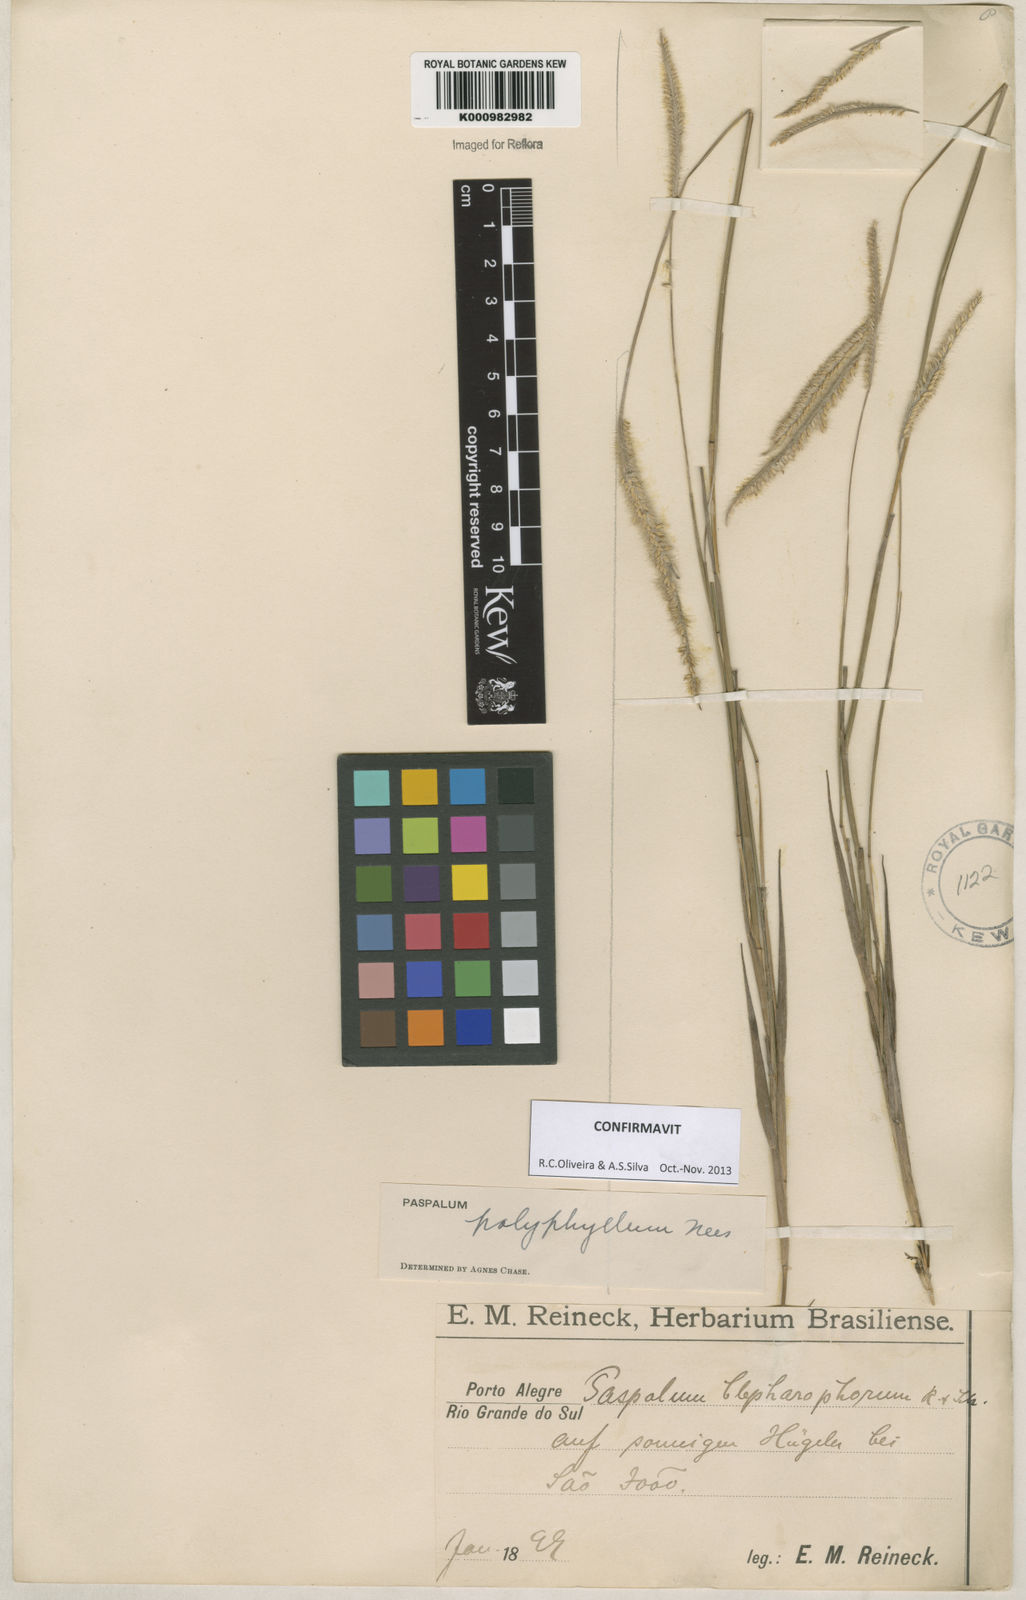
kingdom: Plantae
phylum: Tracheophyta
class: Liliopsida
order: Poales
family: Poaceae
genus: Paspalum
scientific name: Paspalum
